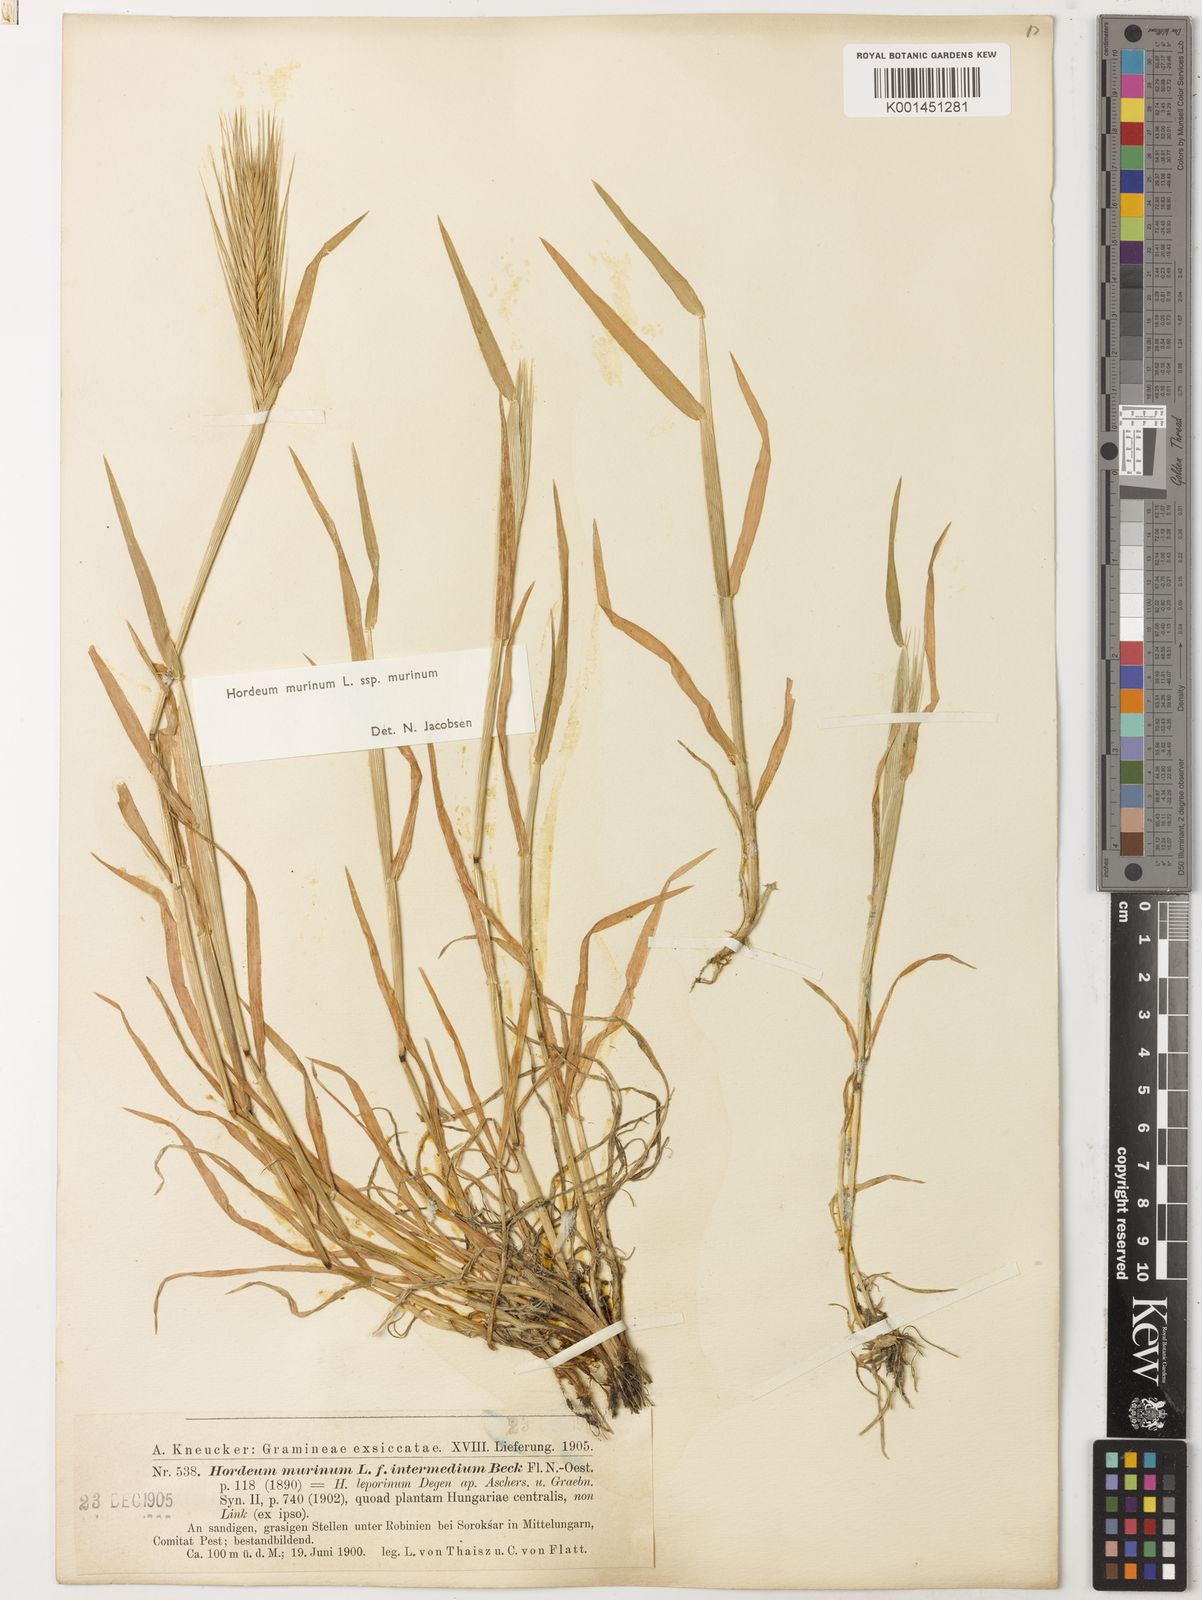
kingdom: Plantae
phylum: Tracheophyta
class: Liliopsida
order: Poales
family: Poaceae
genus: Hordeum
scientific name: Hordeum murinum
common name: Wall barley
